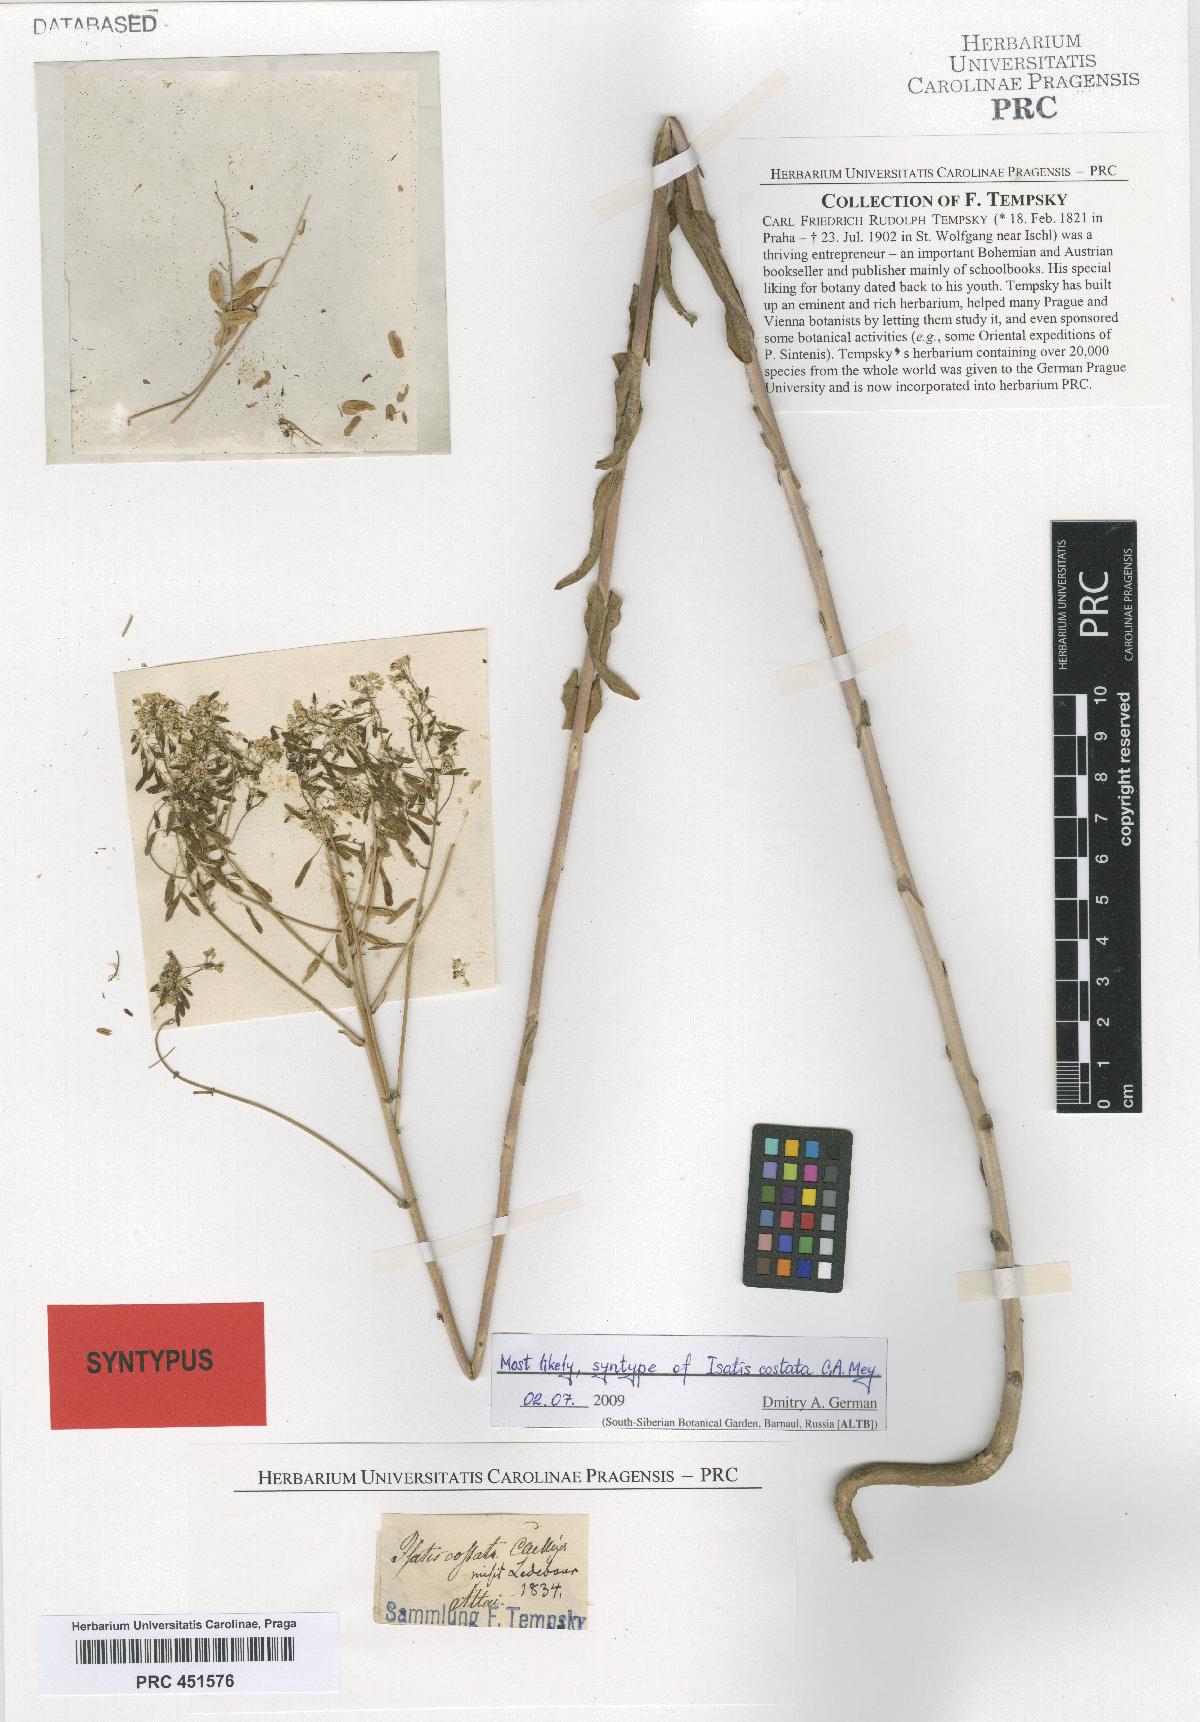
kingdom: Plantae
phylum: Tracheophyta
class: Magnoliopsida
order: Brassicales
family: Brassicaceae
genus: Isatis
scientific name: Isatis costata
